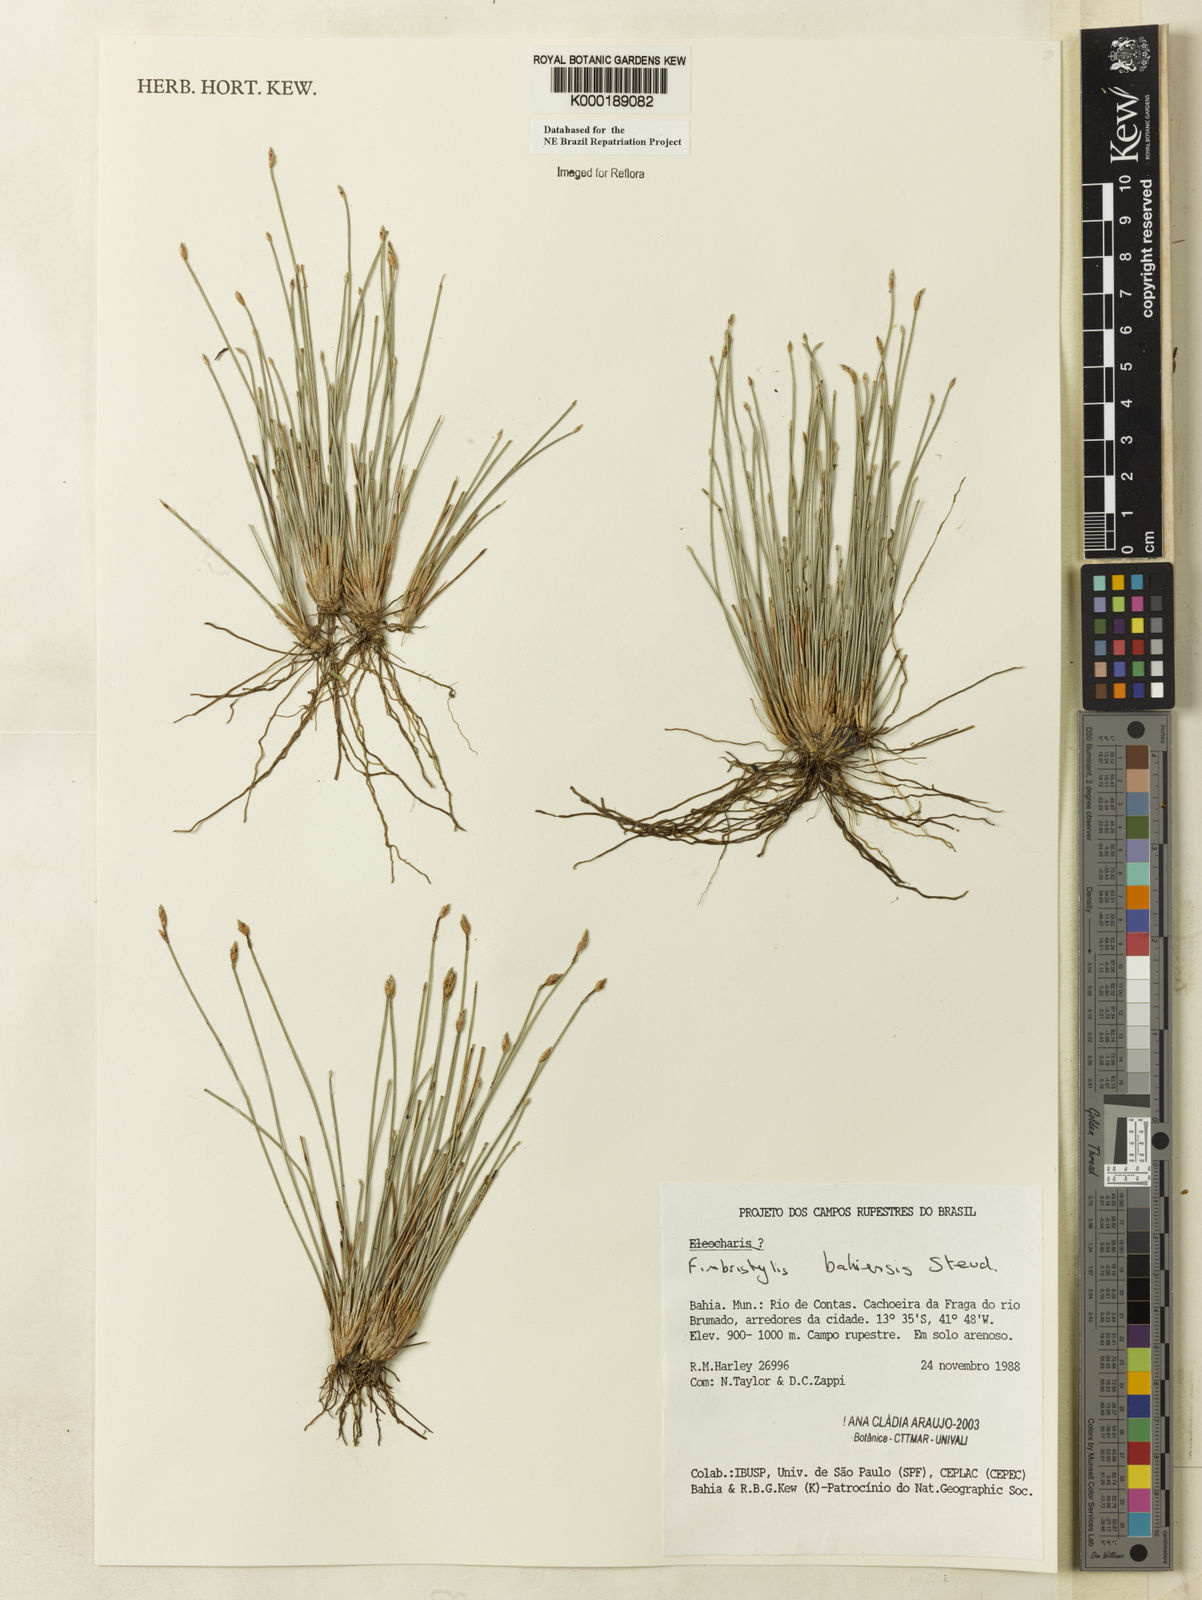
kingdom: Plantae
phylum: Tracheophyta
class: Liliopsida
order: Poales
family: Cyperaceae
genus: Fimbristylis
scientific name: Fimbristylis bahiensis
